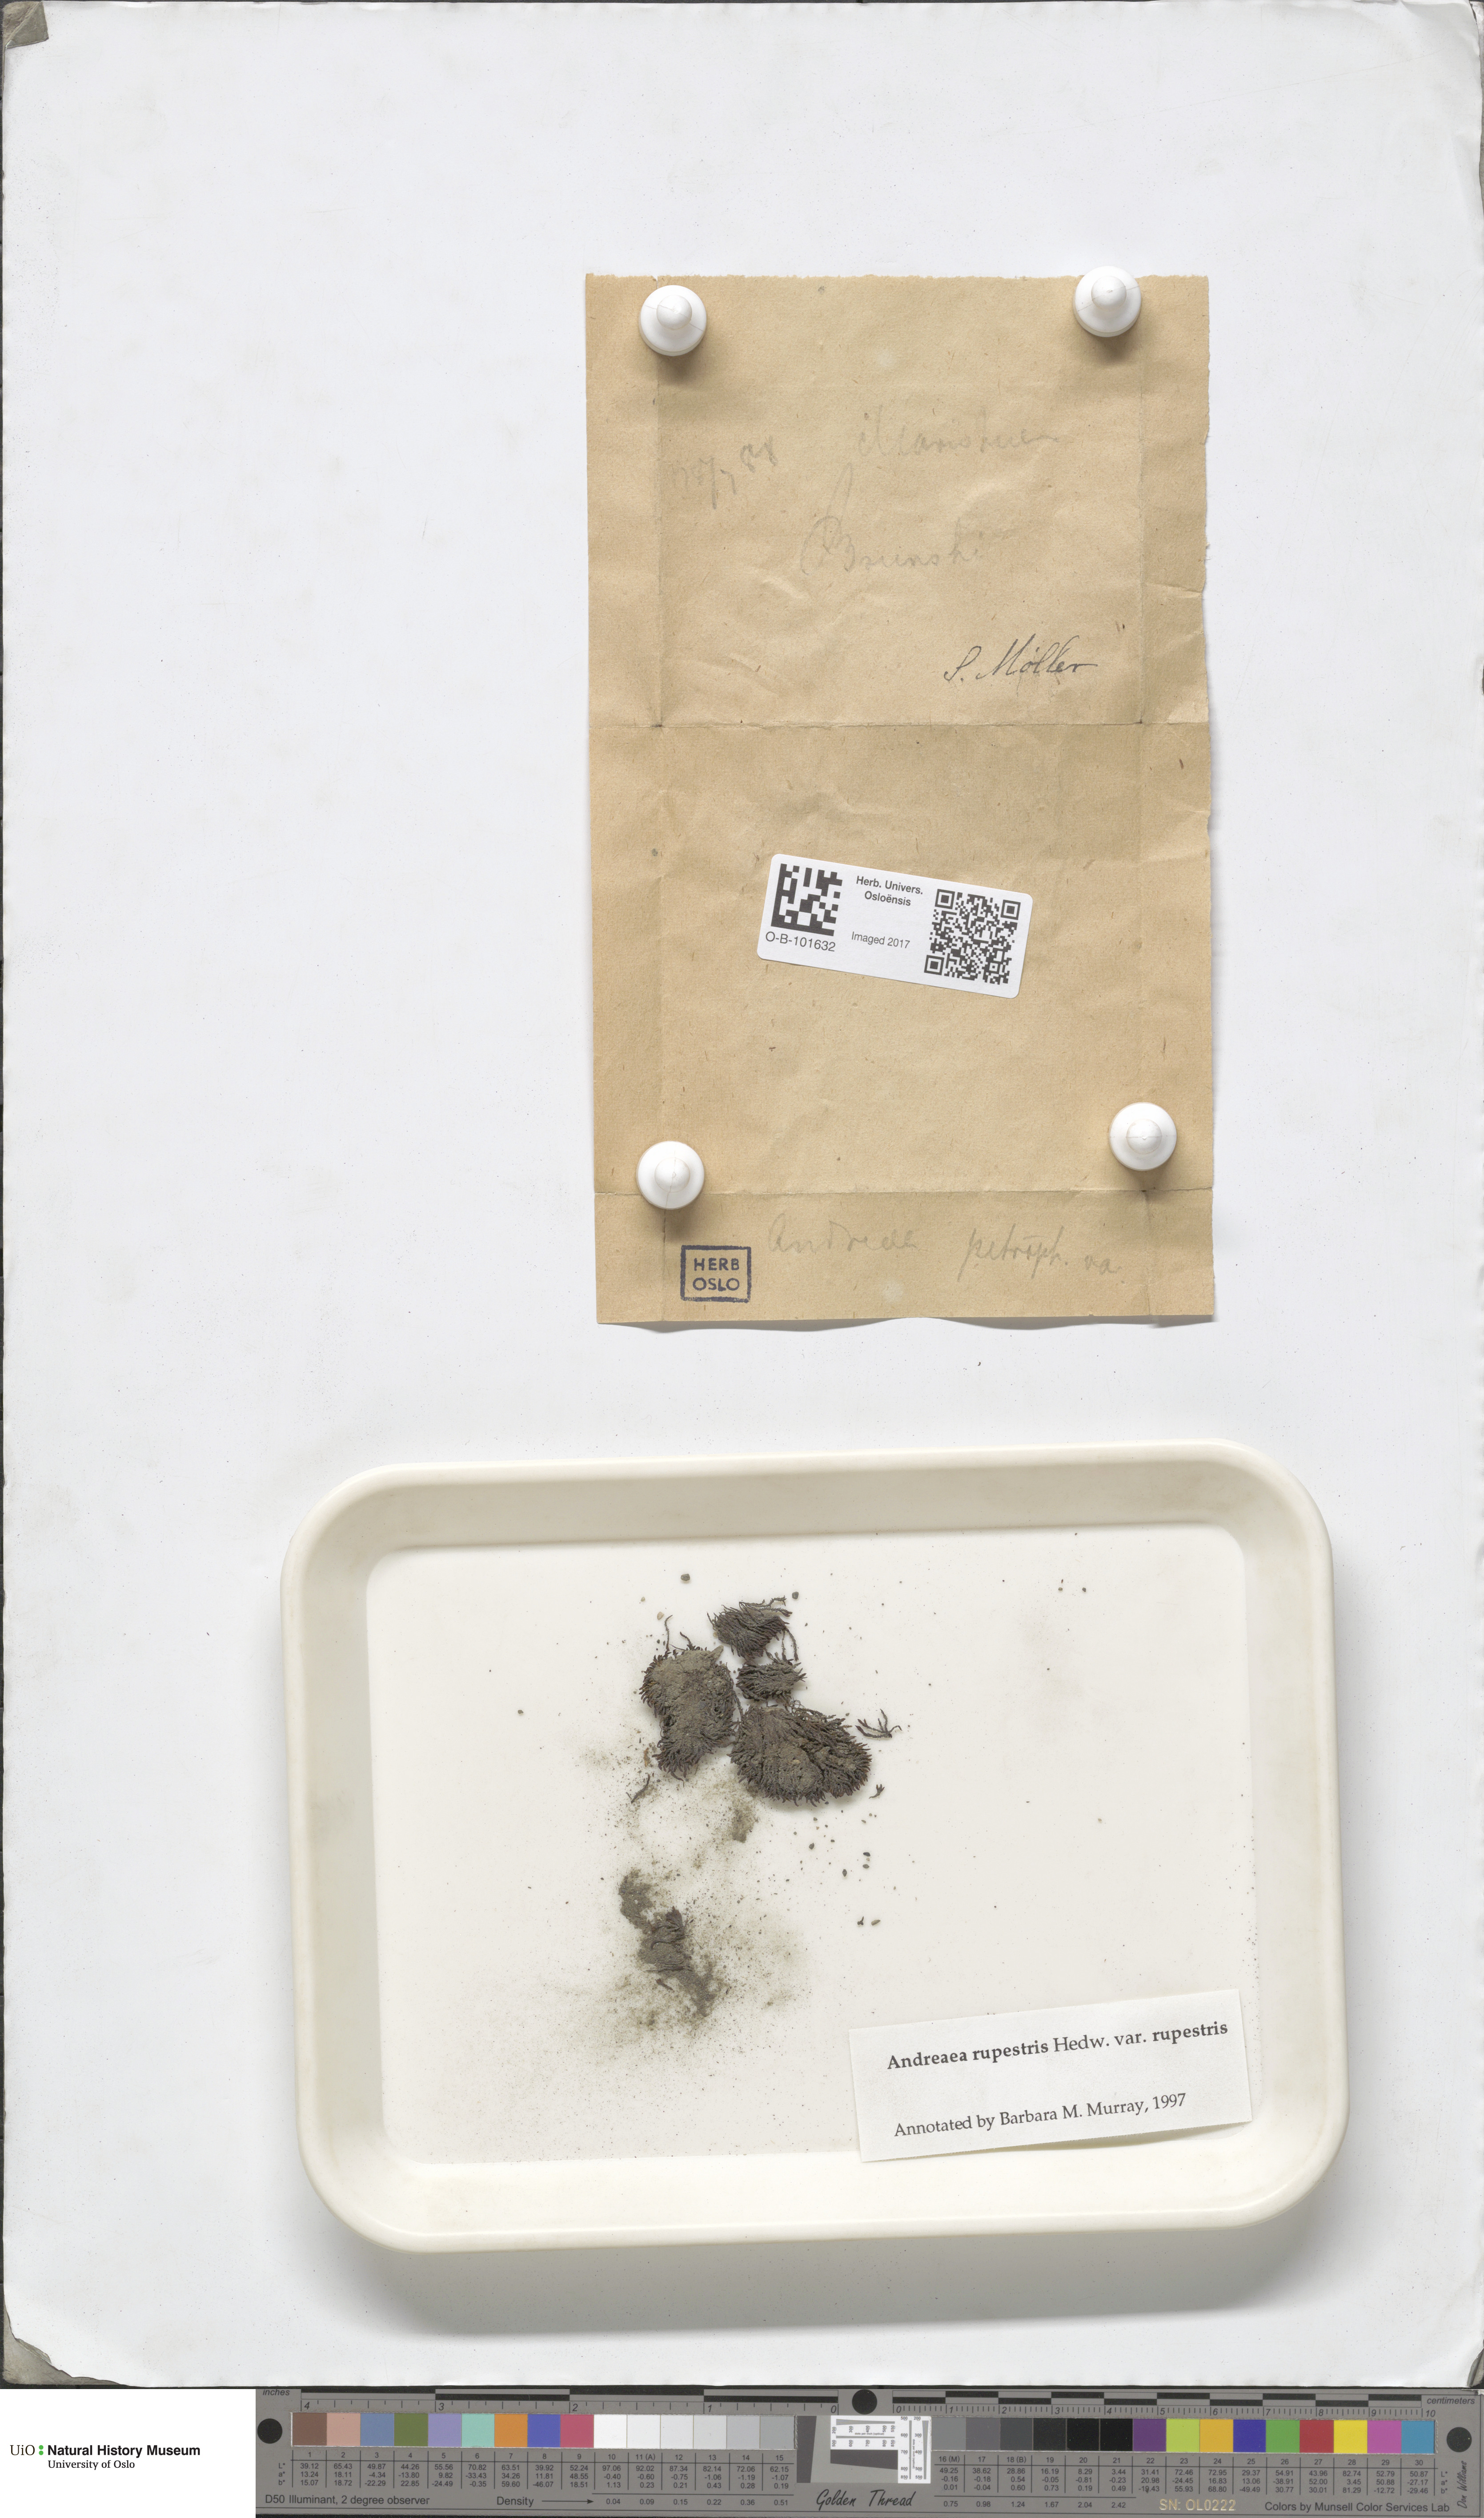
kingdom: Plantae
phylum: Bryophyta
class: Andreaeopsida
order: Andreaeales
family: Andreaeaceae
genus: Andreaea
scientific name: Andreaea rupestris
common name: Black rock moss
